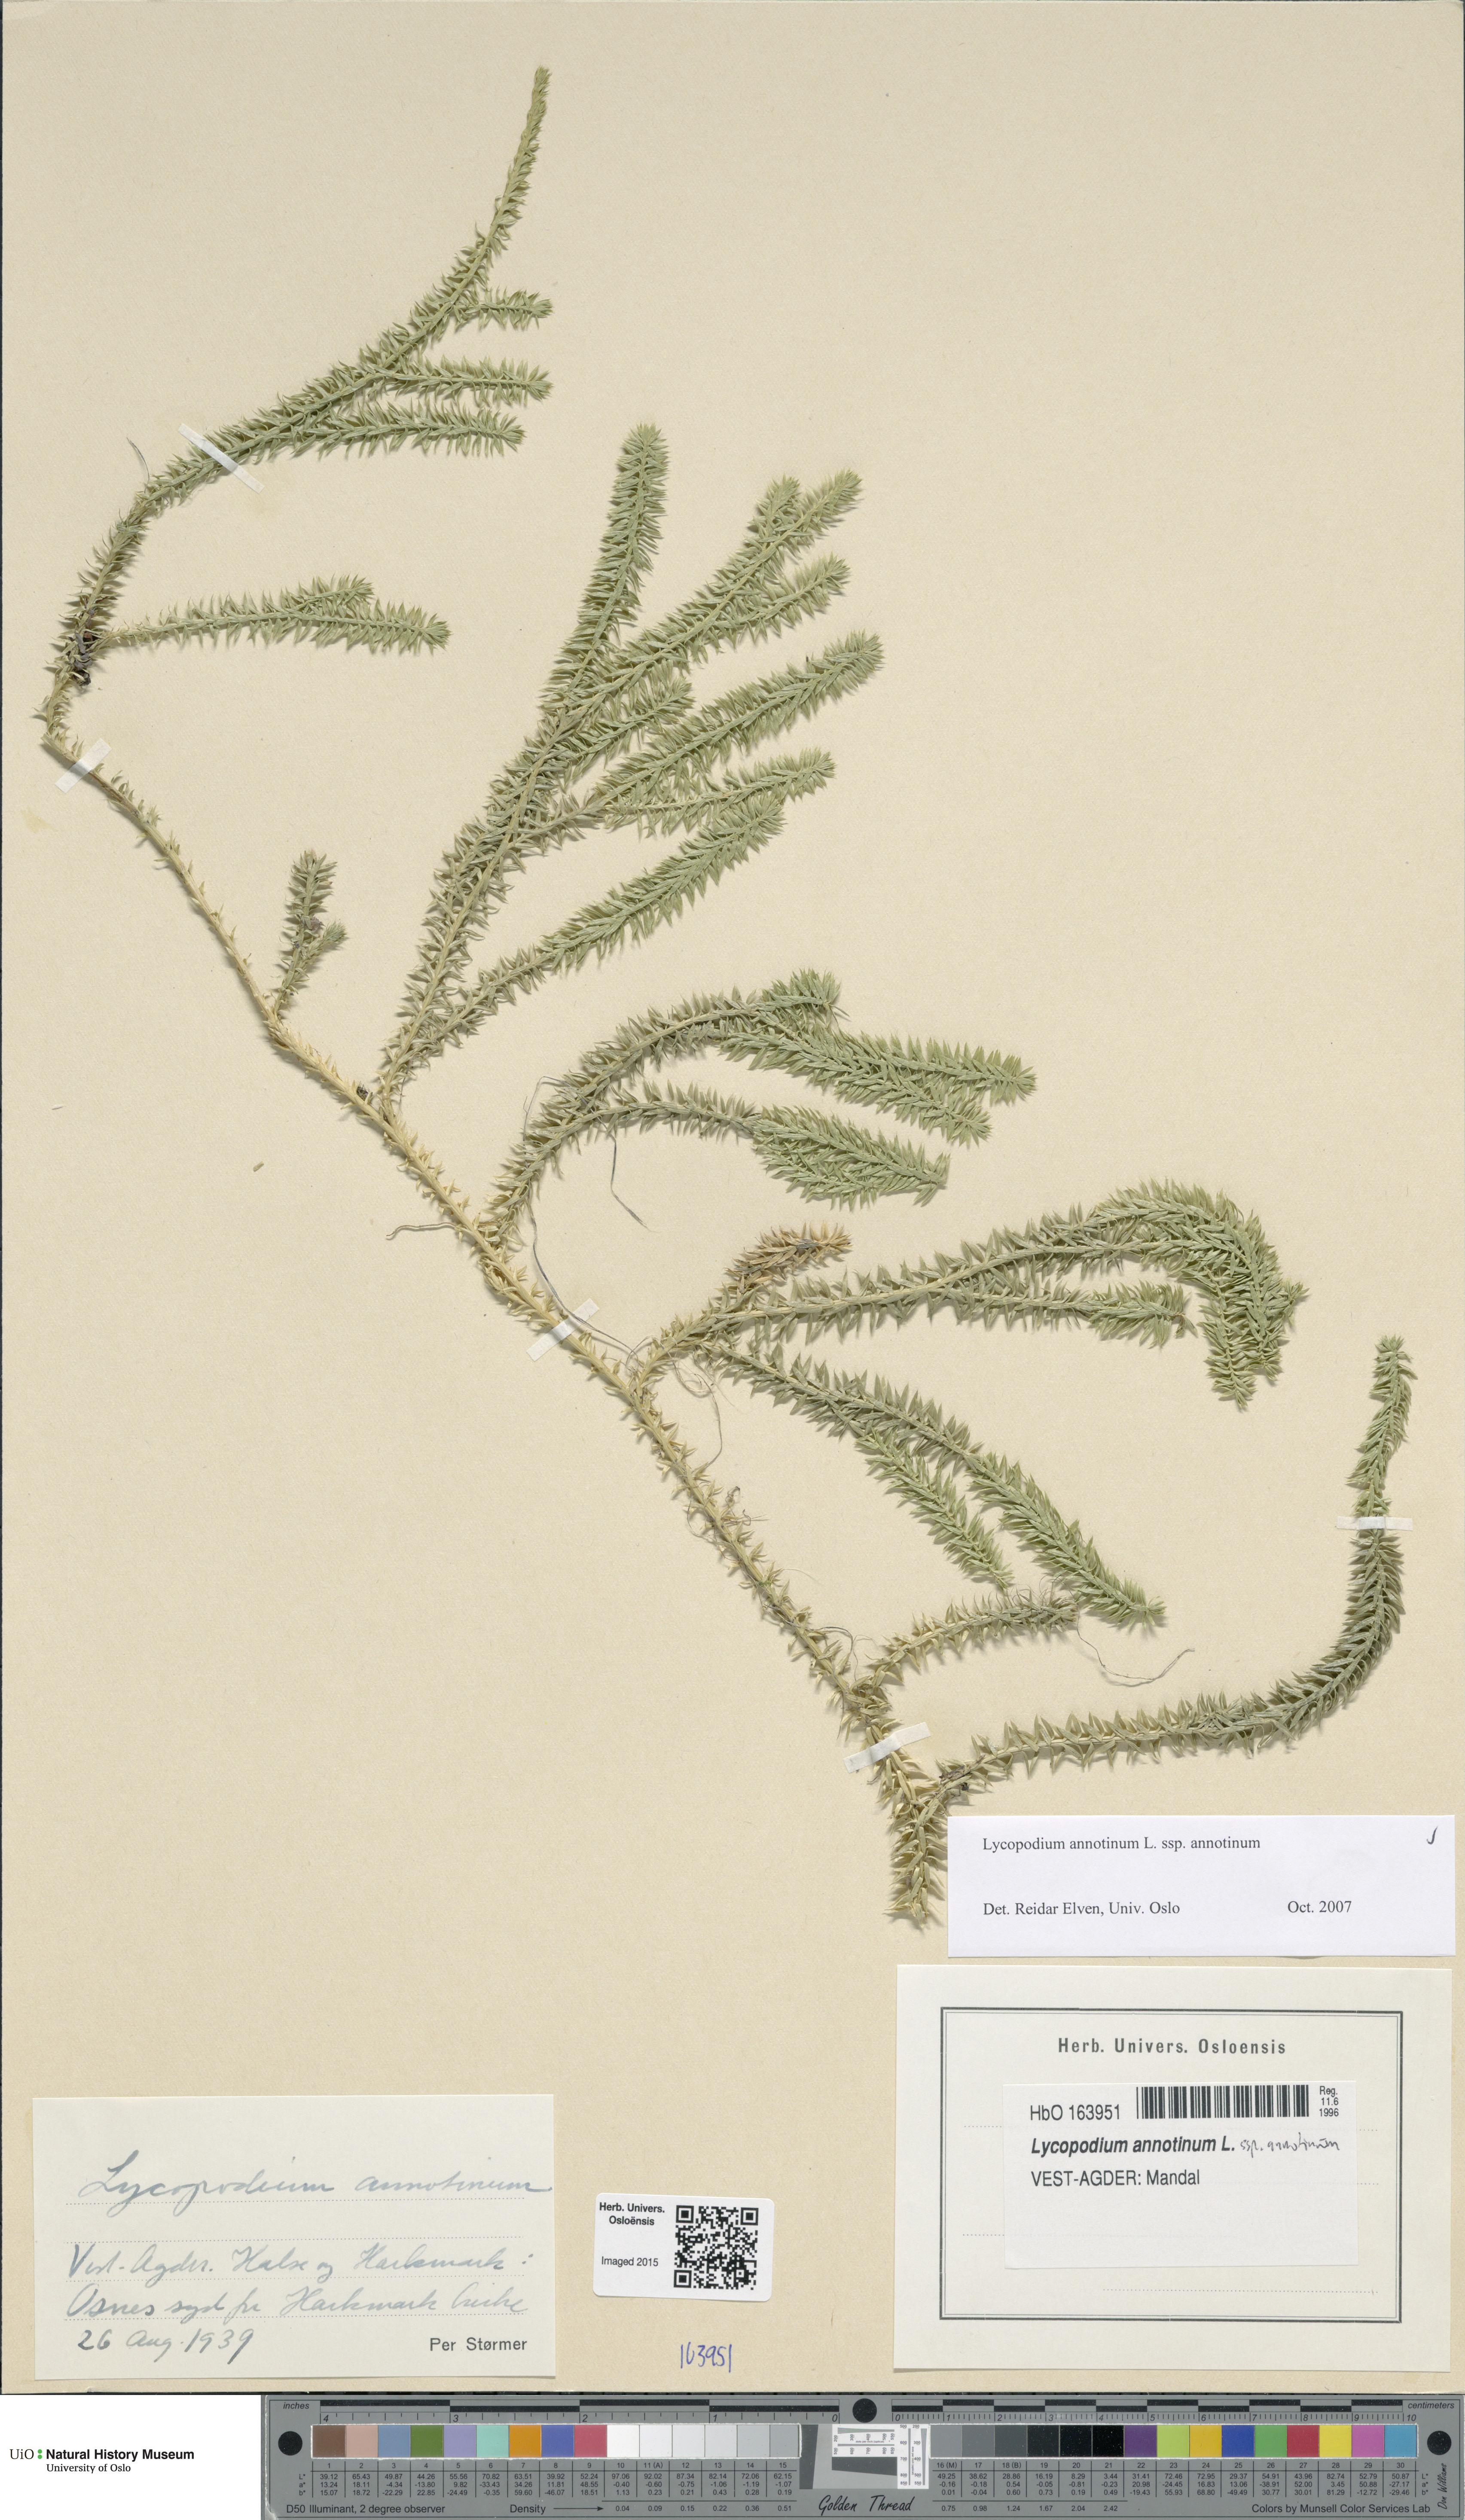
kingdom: Plantae
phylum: Tracheophyta
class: Lycopodiopsida
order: Lycopodiales
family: Lycopodiaceae
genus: Spinulum
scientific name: Spinulum annotinum
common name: Interrupted club-moss
